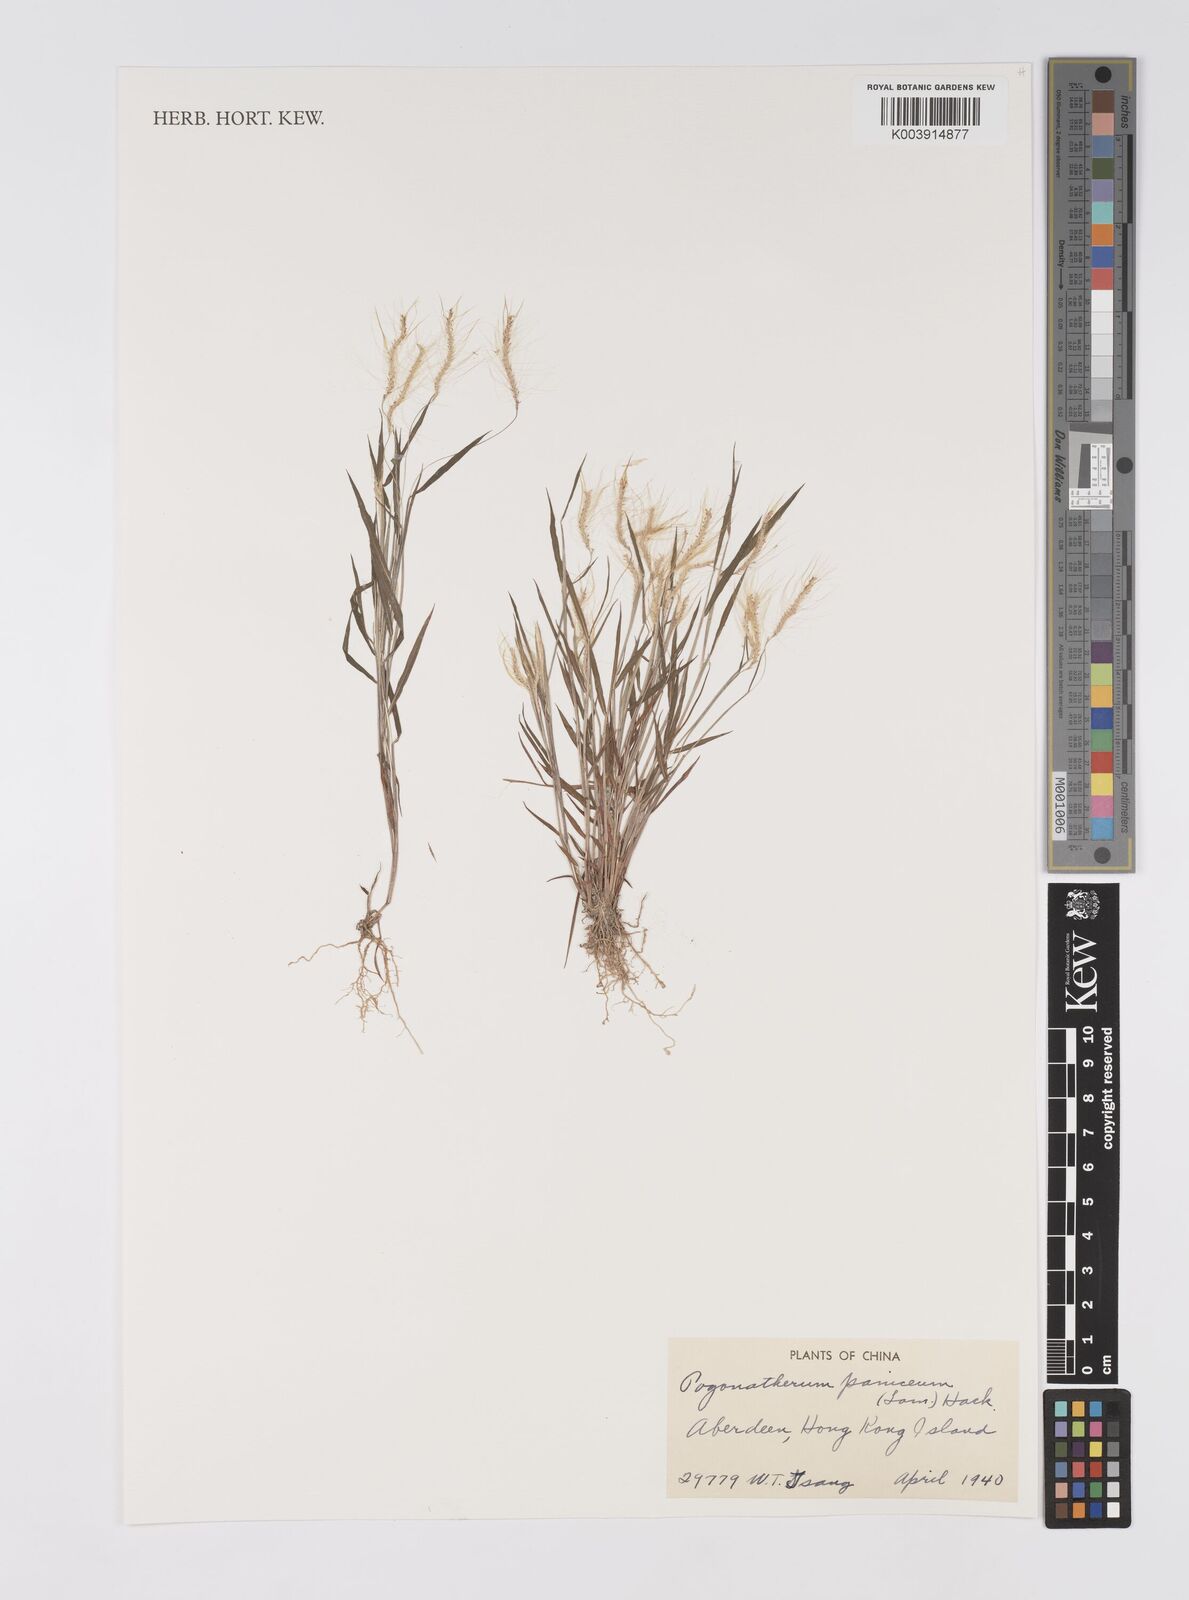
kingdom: Plantae
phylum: Tracheophyta
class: Liliopsida
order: Poales
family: Poaceae
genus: Pogonatherum
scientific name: Pogonatherum paniceum
